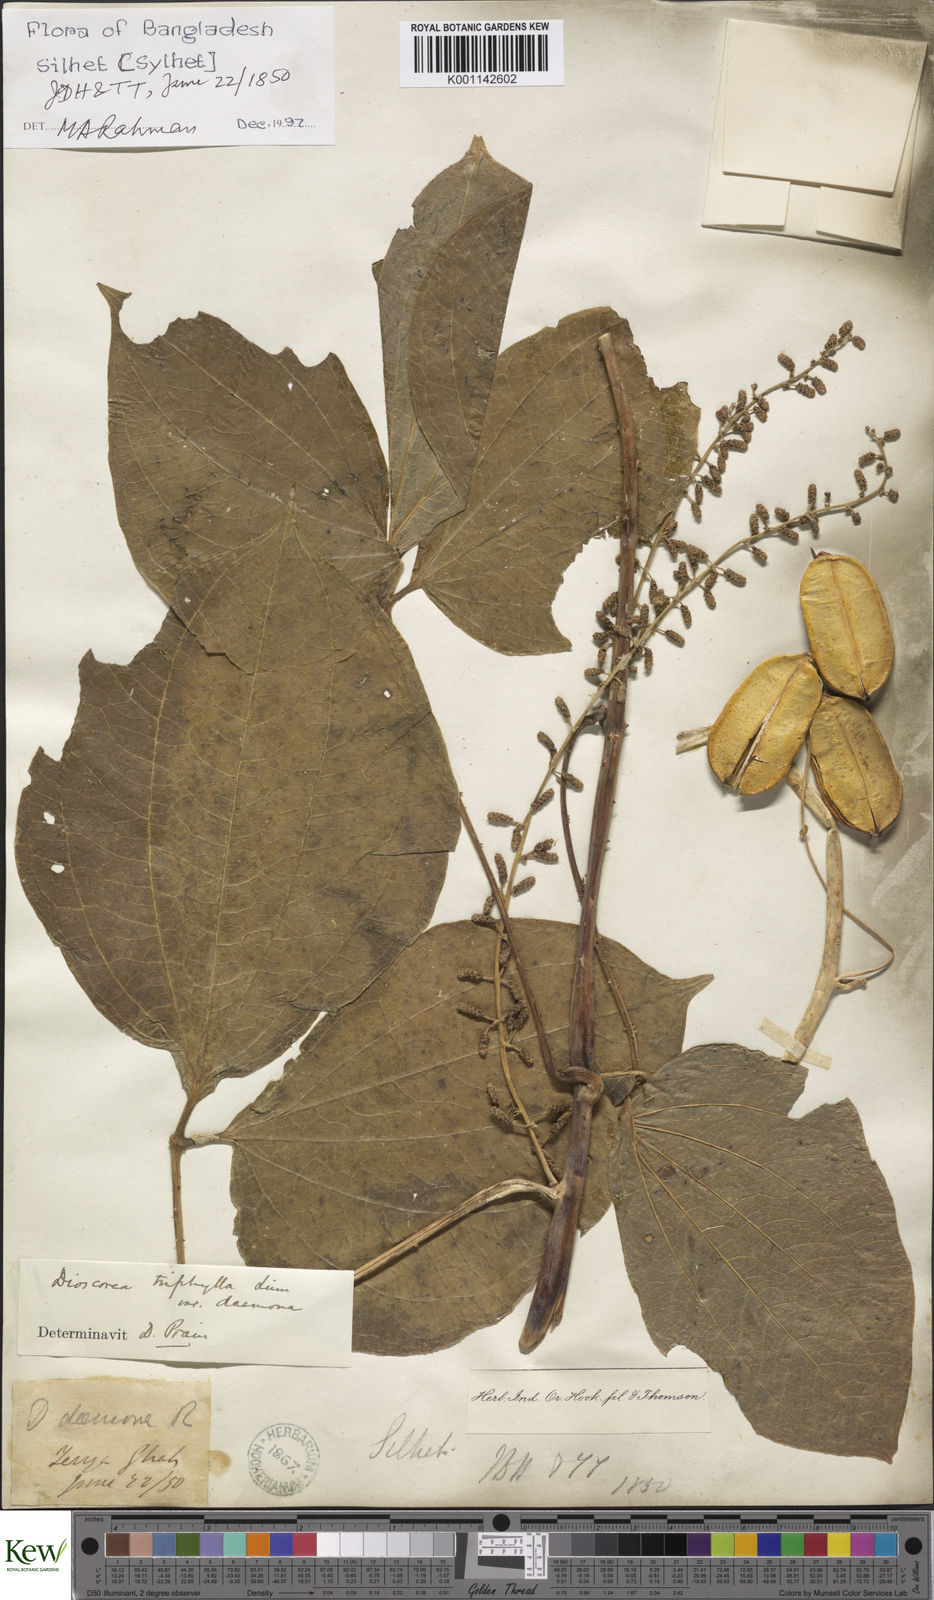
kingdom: Plantae
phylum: Tracheophyta
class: Liliopsida
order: Dioscoreales
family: Dioscoreaceae
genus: Dioscorea
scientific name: Dioscorea pentaphylla
